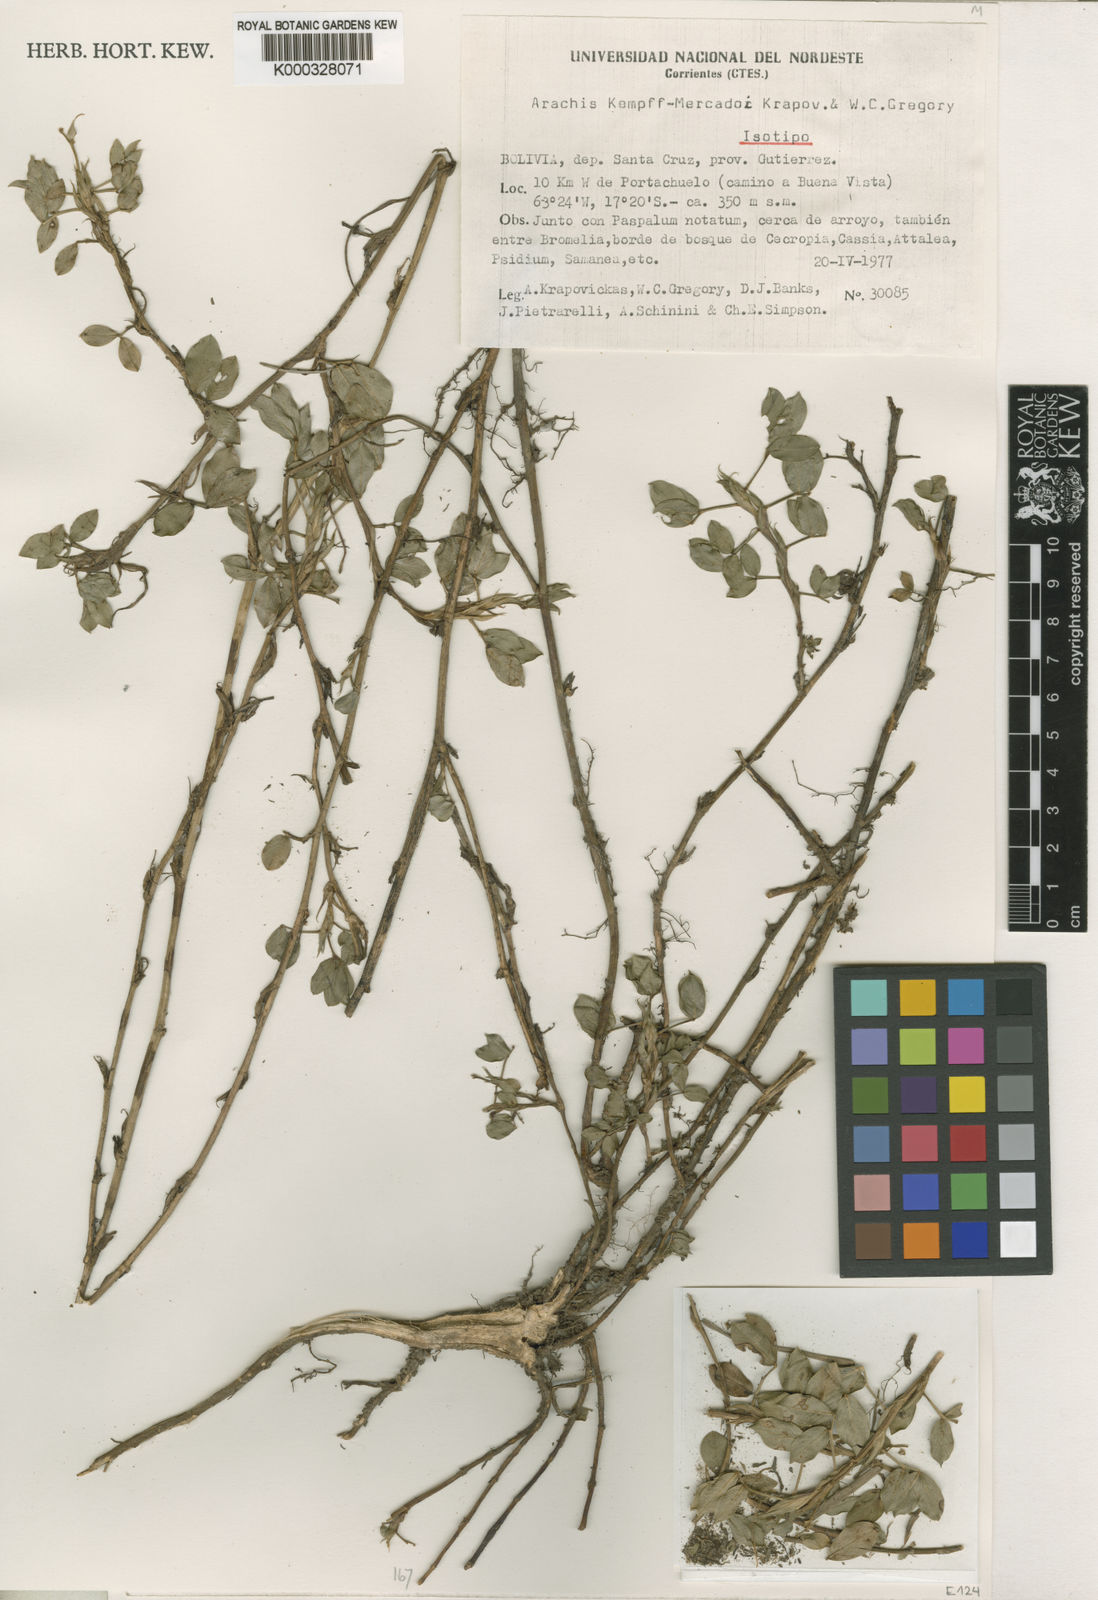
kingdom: Plantae
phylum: Tracheophyta
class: Magnoliopsida
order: Fabales
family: Fabaceae
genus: Arachis
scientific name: Arachis kempff-mercadoi
